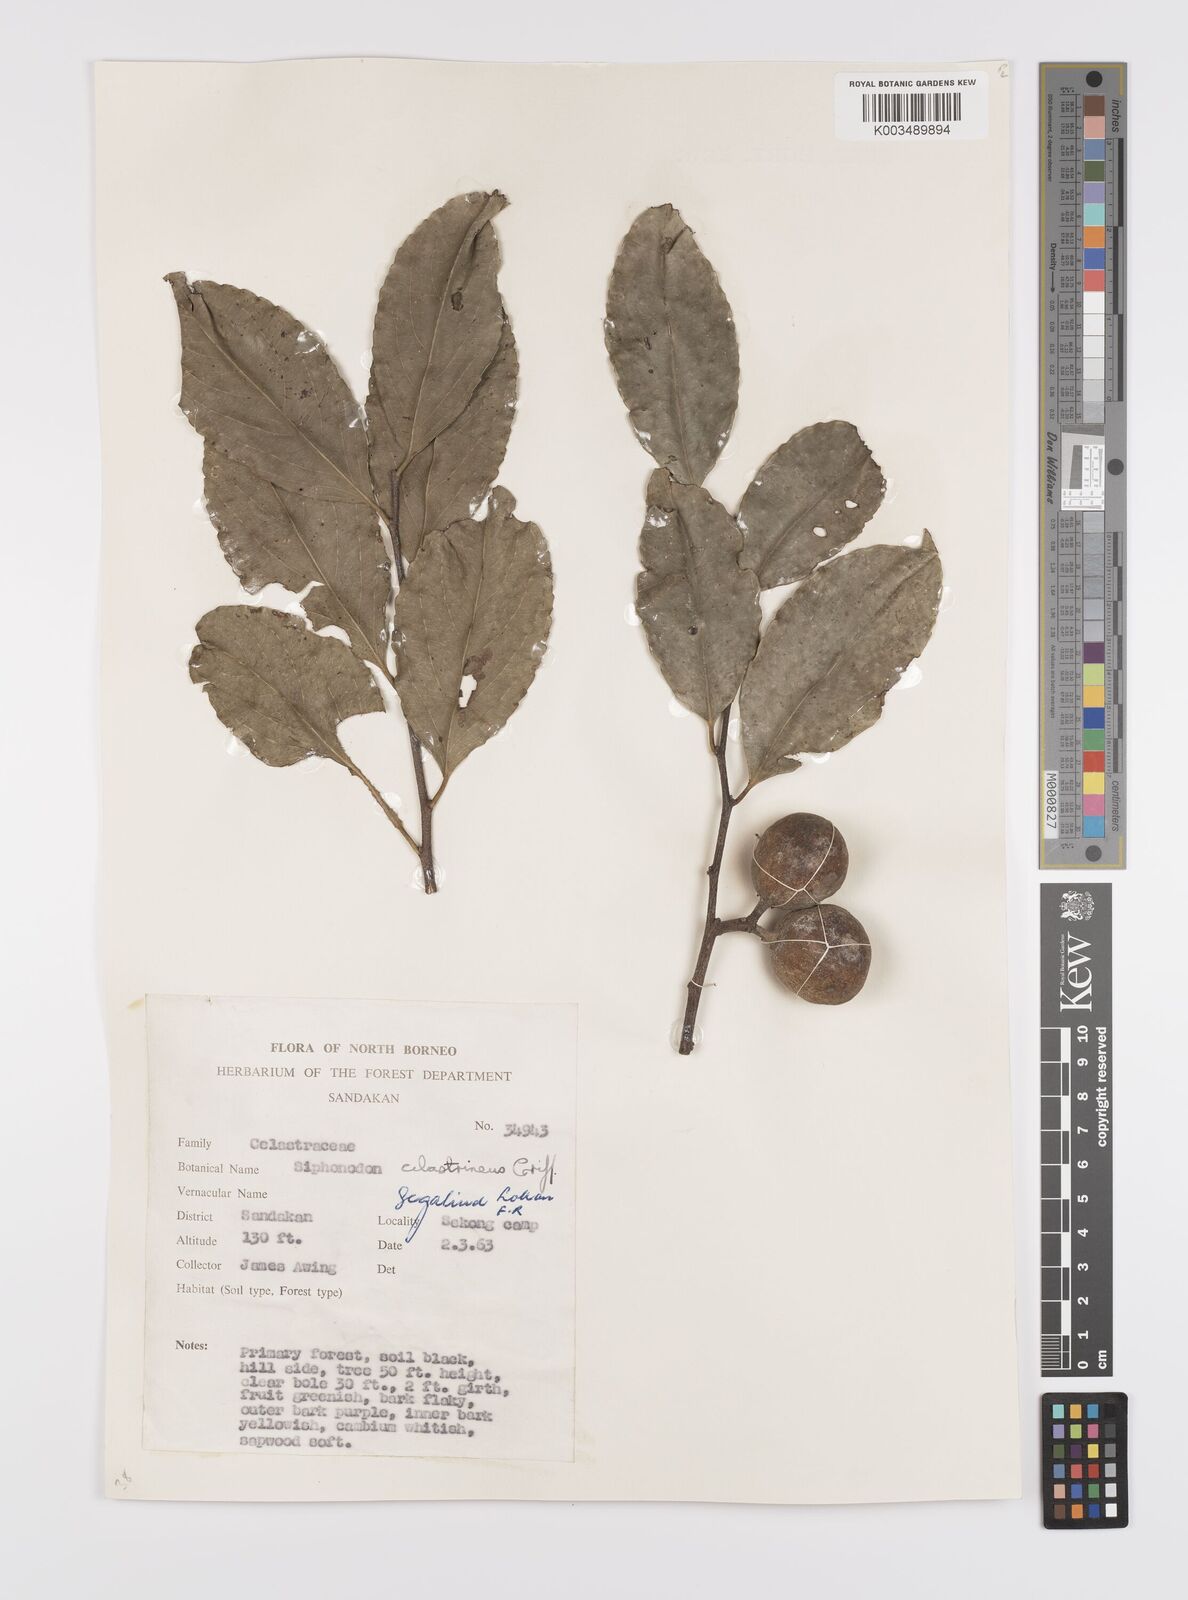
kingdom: Plantae
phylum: Tracheophyta
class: Magnoliopsida
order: Celastrales
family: Celastraceae
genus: Siphonodon
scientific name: Siphonodon celastrineus
